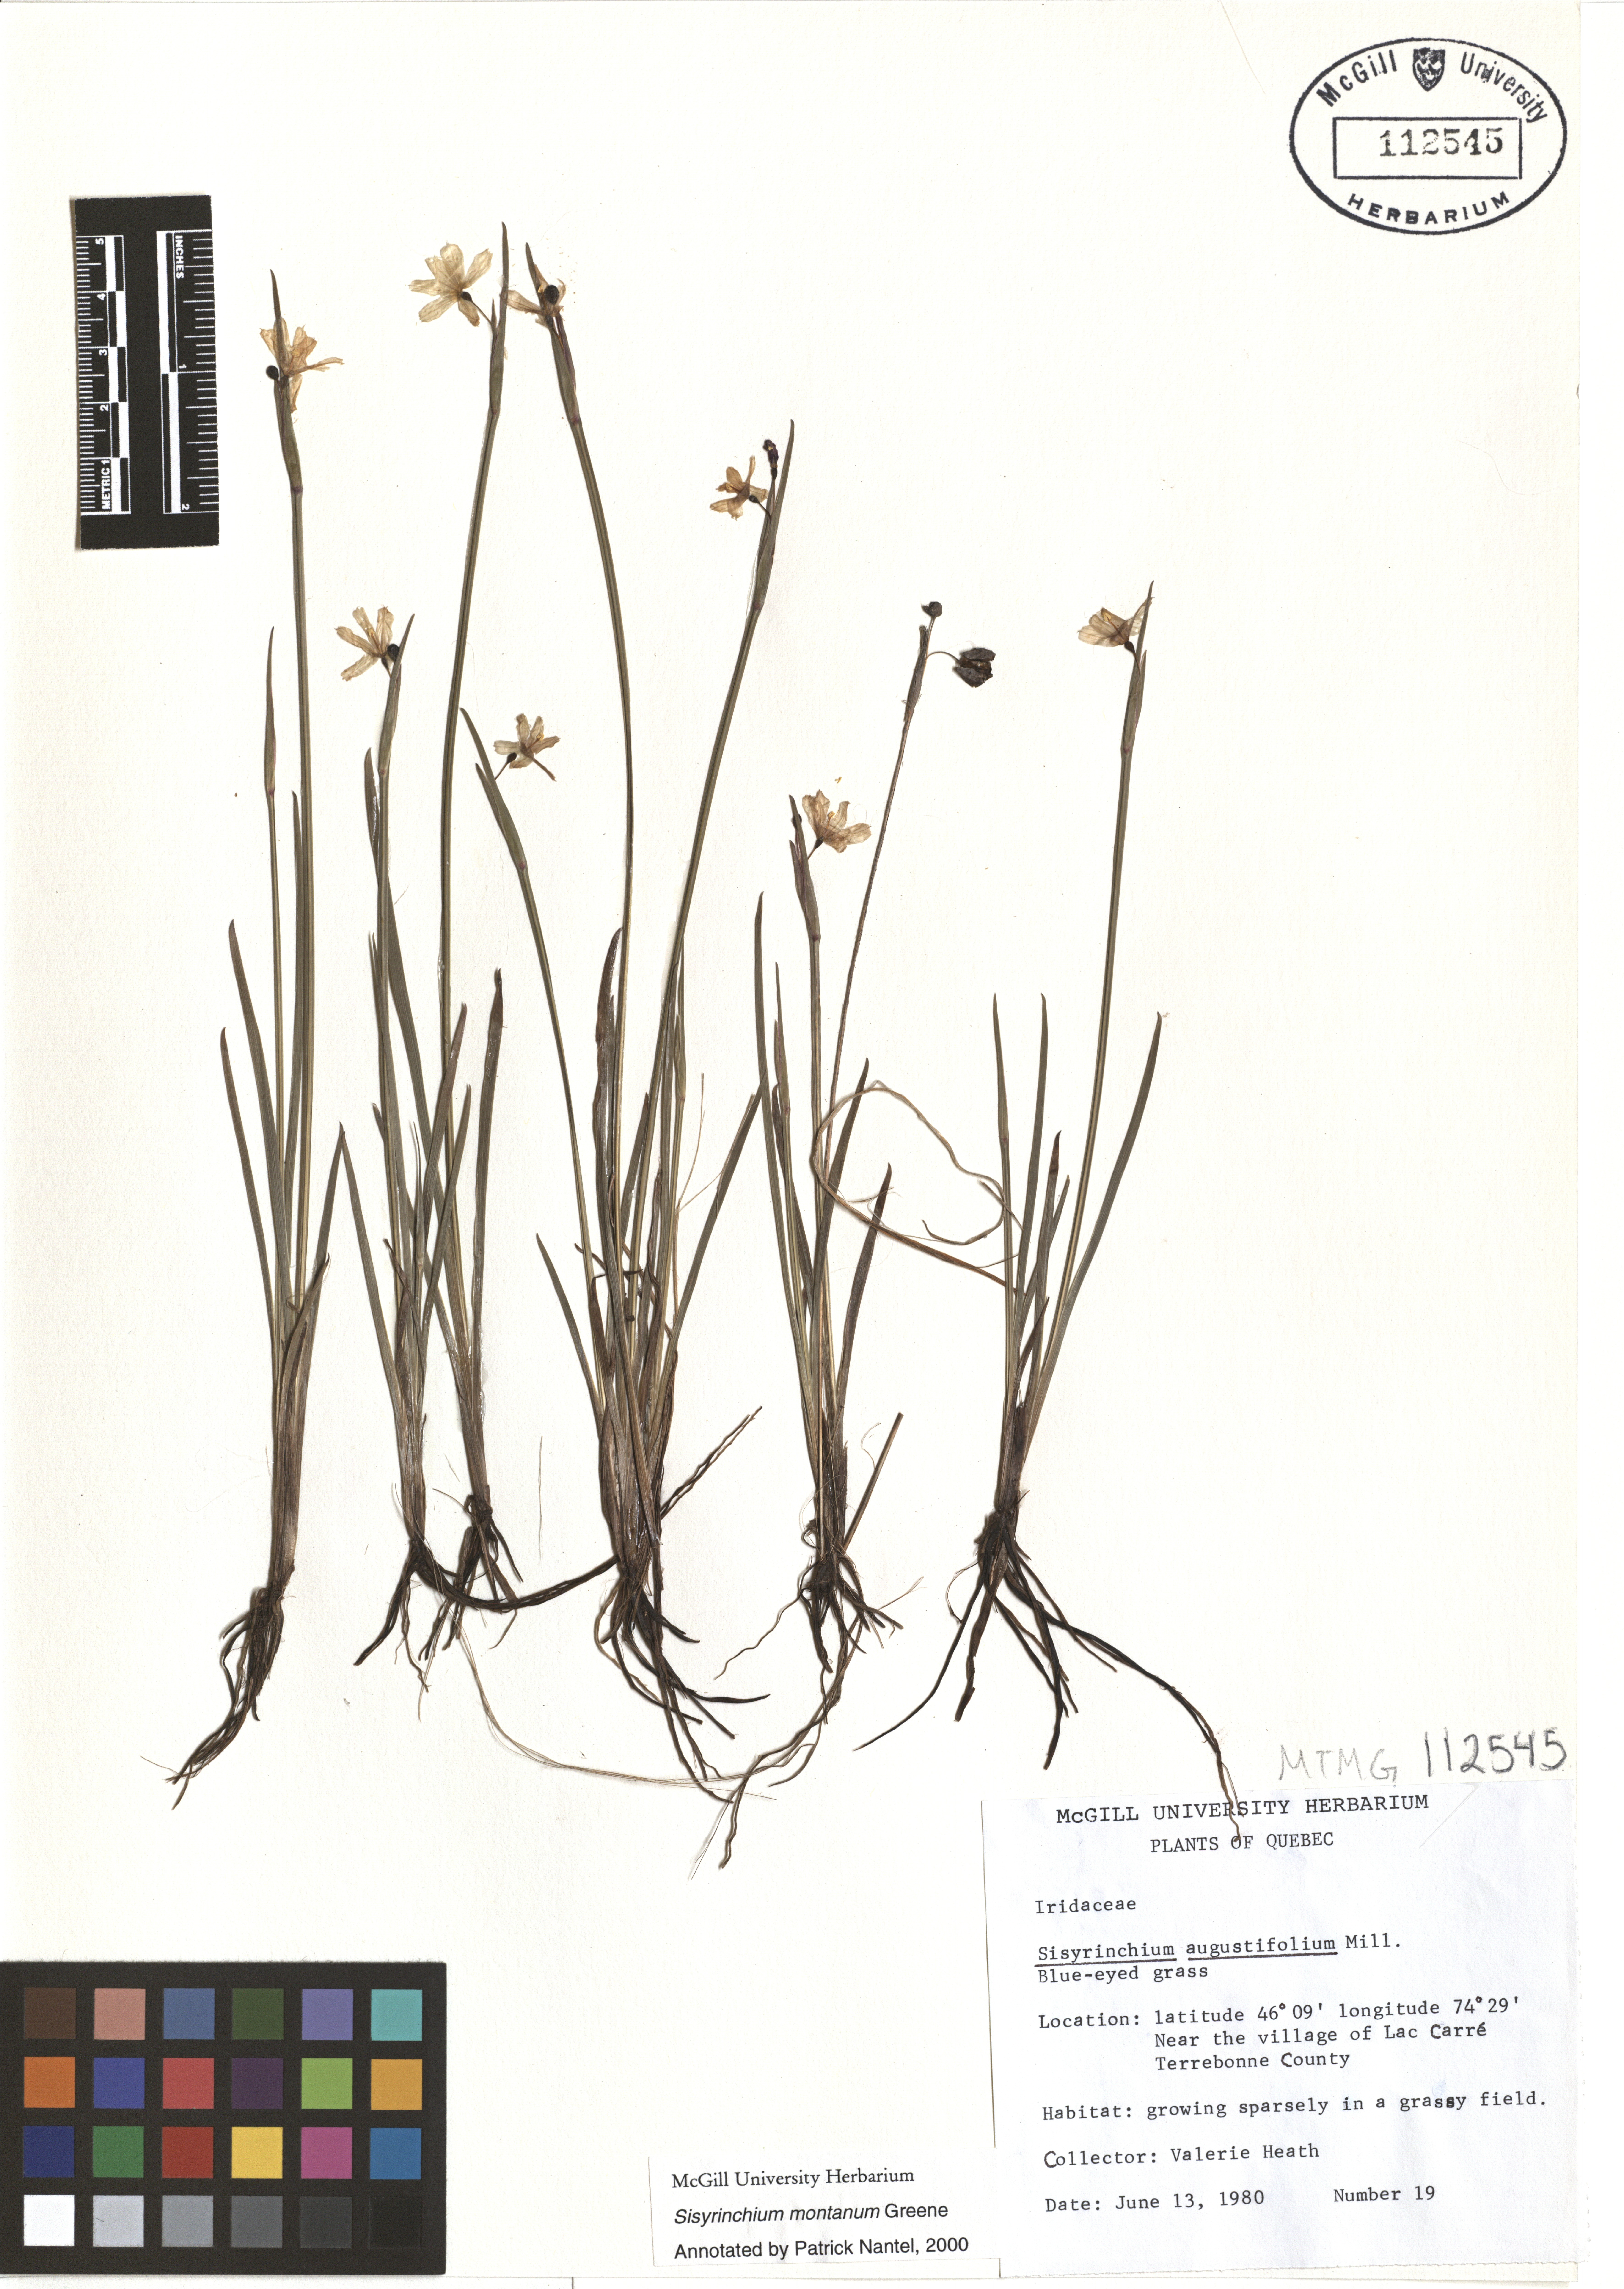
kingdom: Plantae
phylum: Tracheophyta
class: Liliopsida
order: Asparagales
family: Iridaceae
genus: Sisyrinchium
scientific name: Sisyrinchium montanum
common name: American blue-eyed-grass
